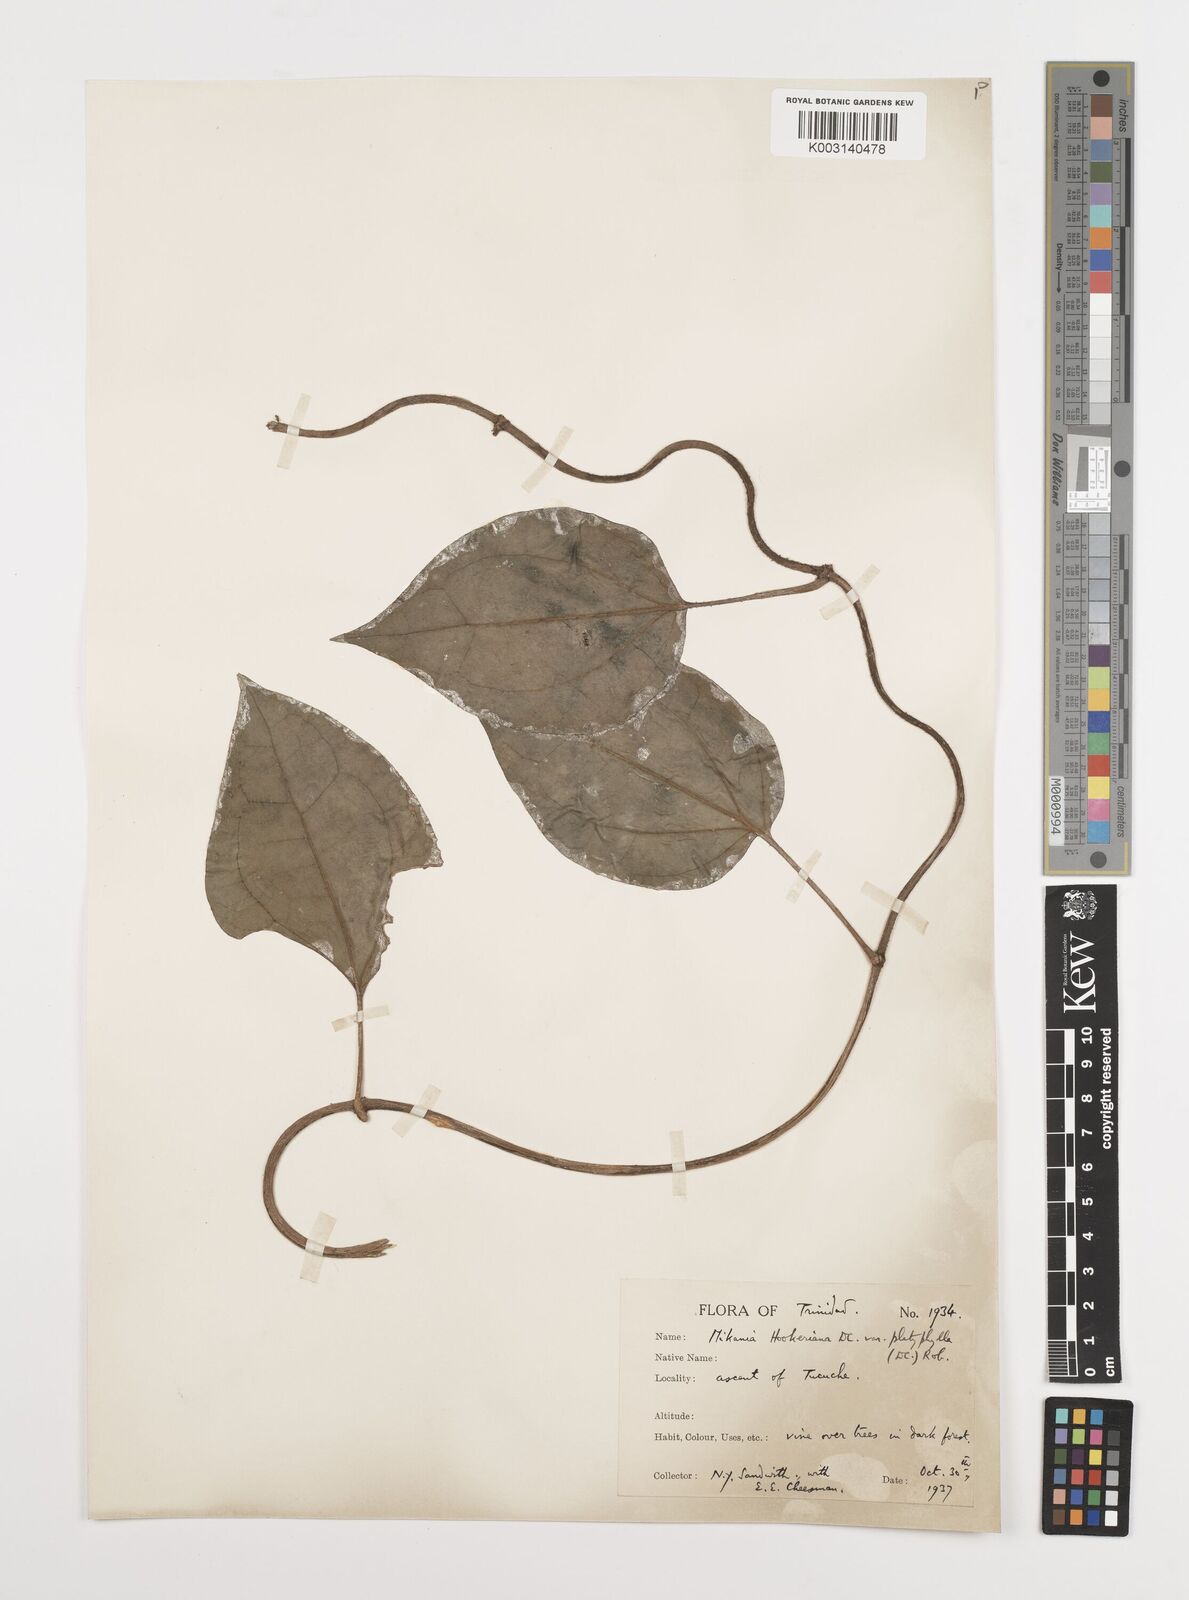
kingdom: Plantae
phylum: Tracheophyta
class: Magnoliopsida
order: Asterales
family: Asteraceae
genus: Mikania
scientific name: Mikania hookeriana
